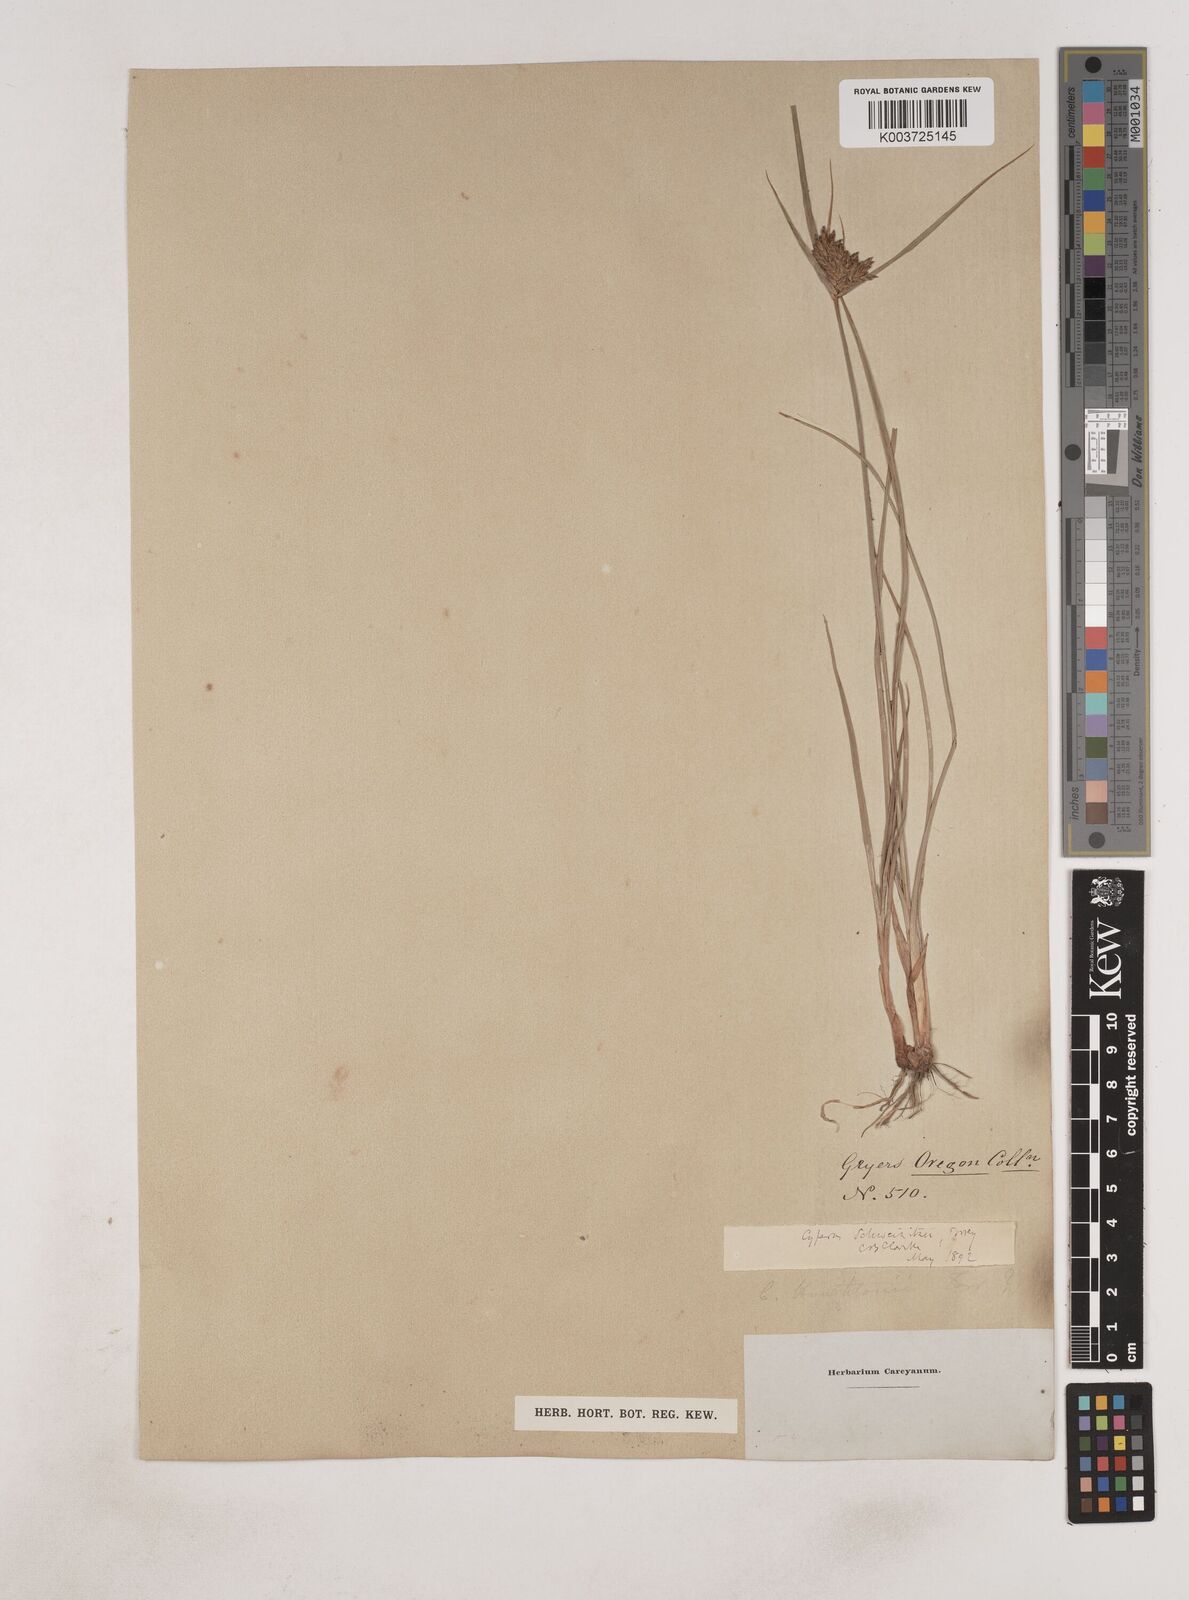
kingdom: Plantae
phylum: Tracheophyta
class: Liliopsida
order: Poales
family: Cyperaceae
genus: Cyperus
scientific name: Cyperus schweinitzii
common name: Schweinitz's cyperus
